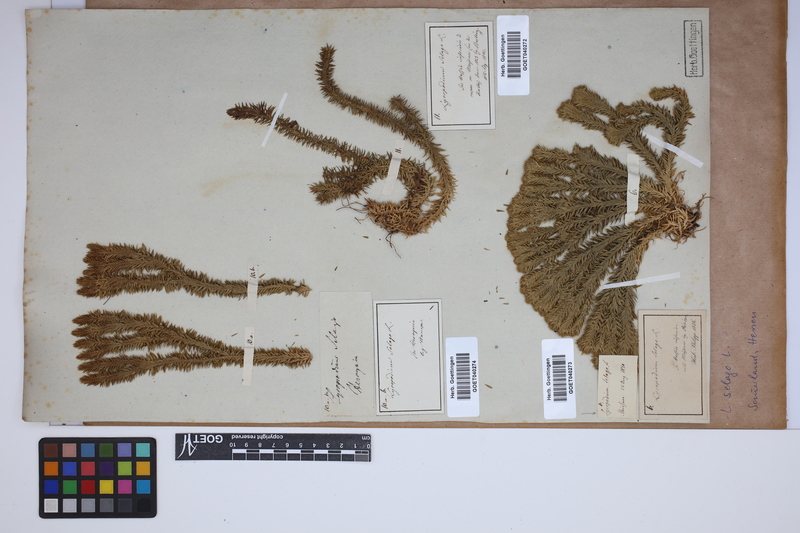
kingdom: Plantae
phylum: Tracheophyta
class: Lycopodiopsida
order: Lycopodiales
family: Lycopodiaceae
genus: Huperzia
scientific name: Huperzia selago
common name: Northern firmoss
